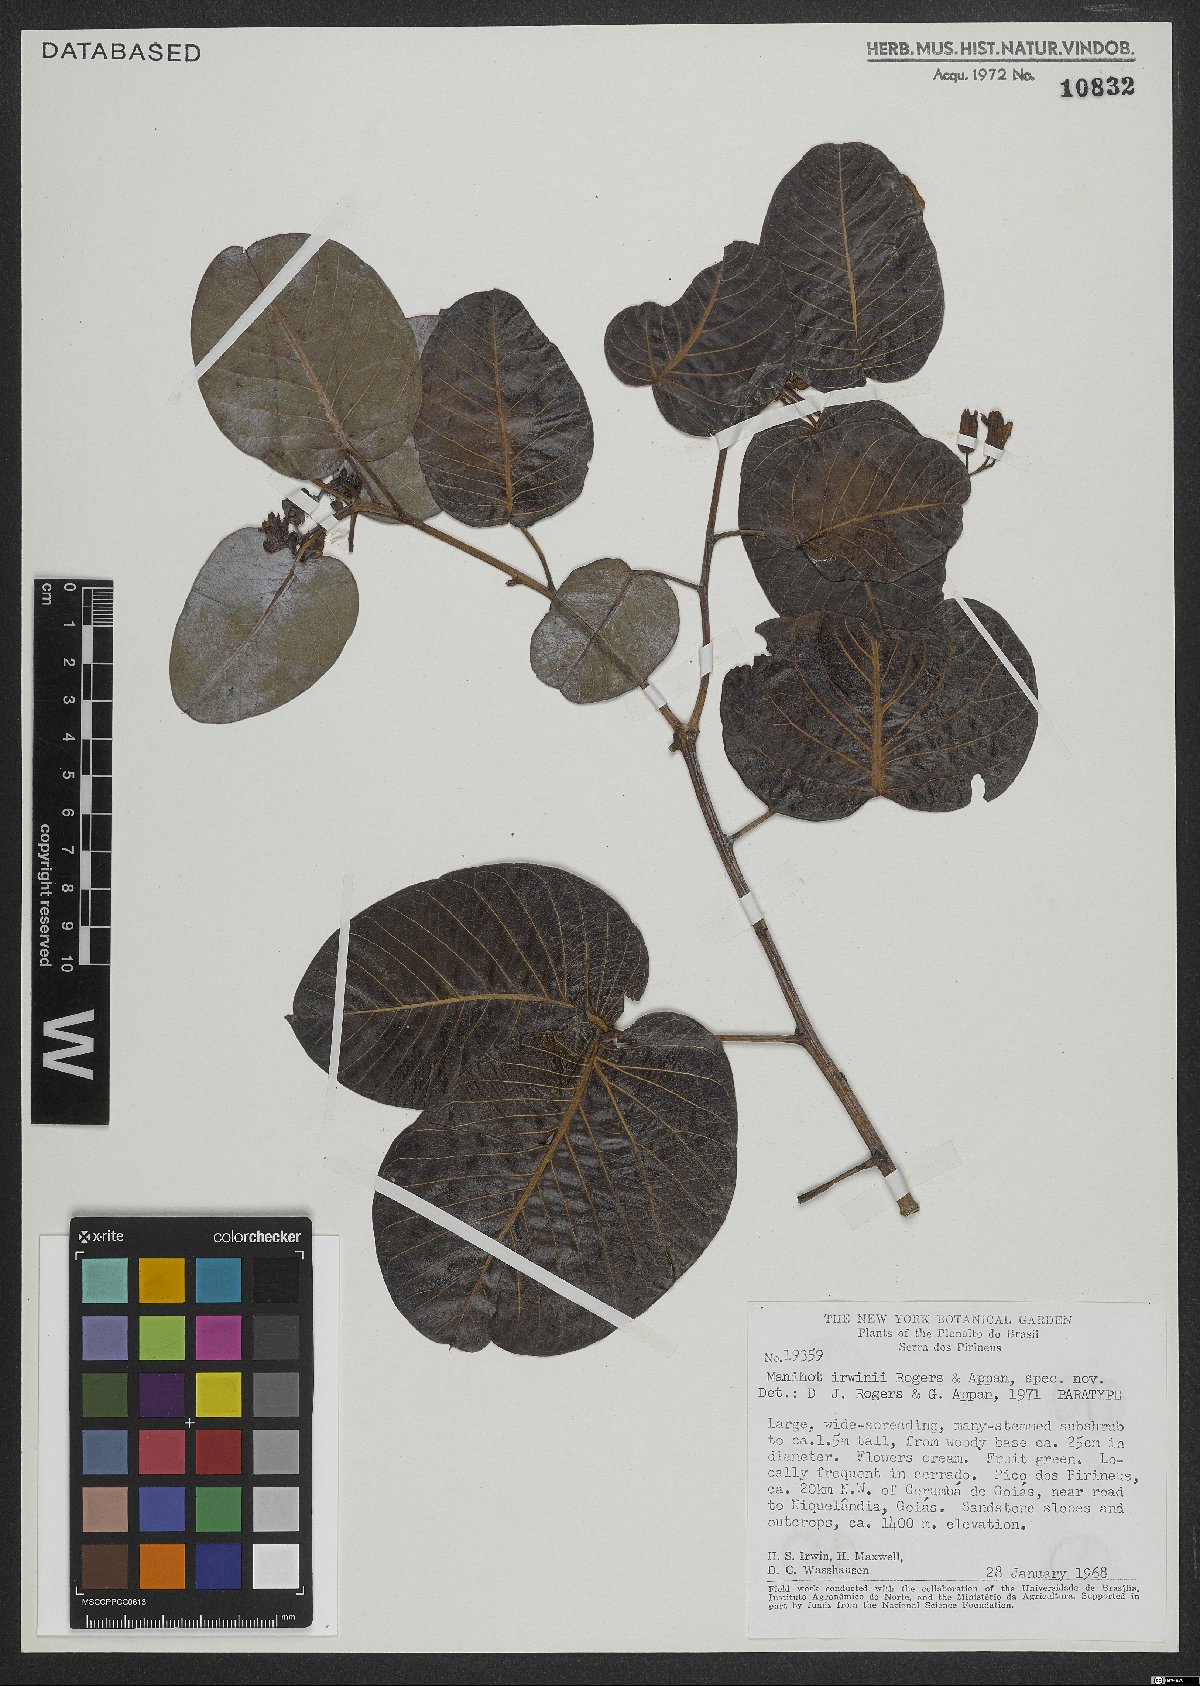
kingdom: Plantae
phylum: Tracheophyta
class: Magnoliopsida
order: Malpighiales
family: Euphorbiaceae
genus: Manihot
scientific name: Manihot irwinii
